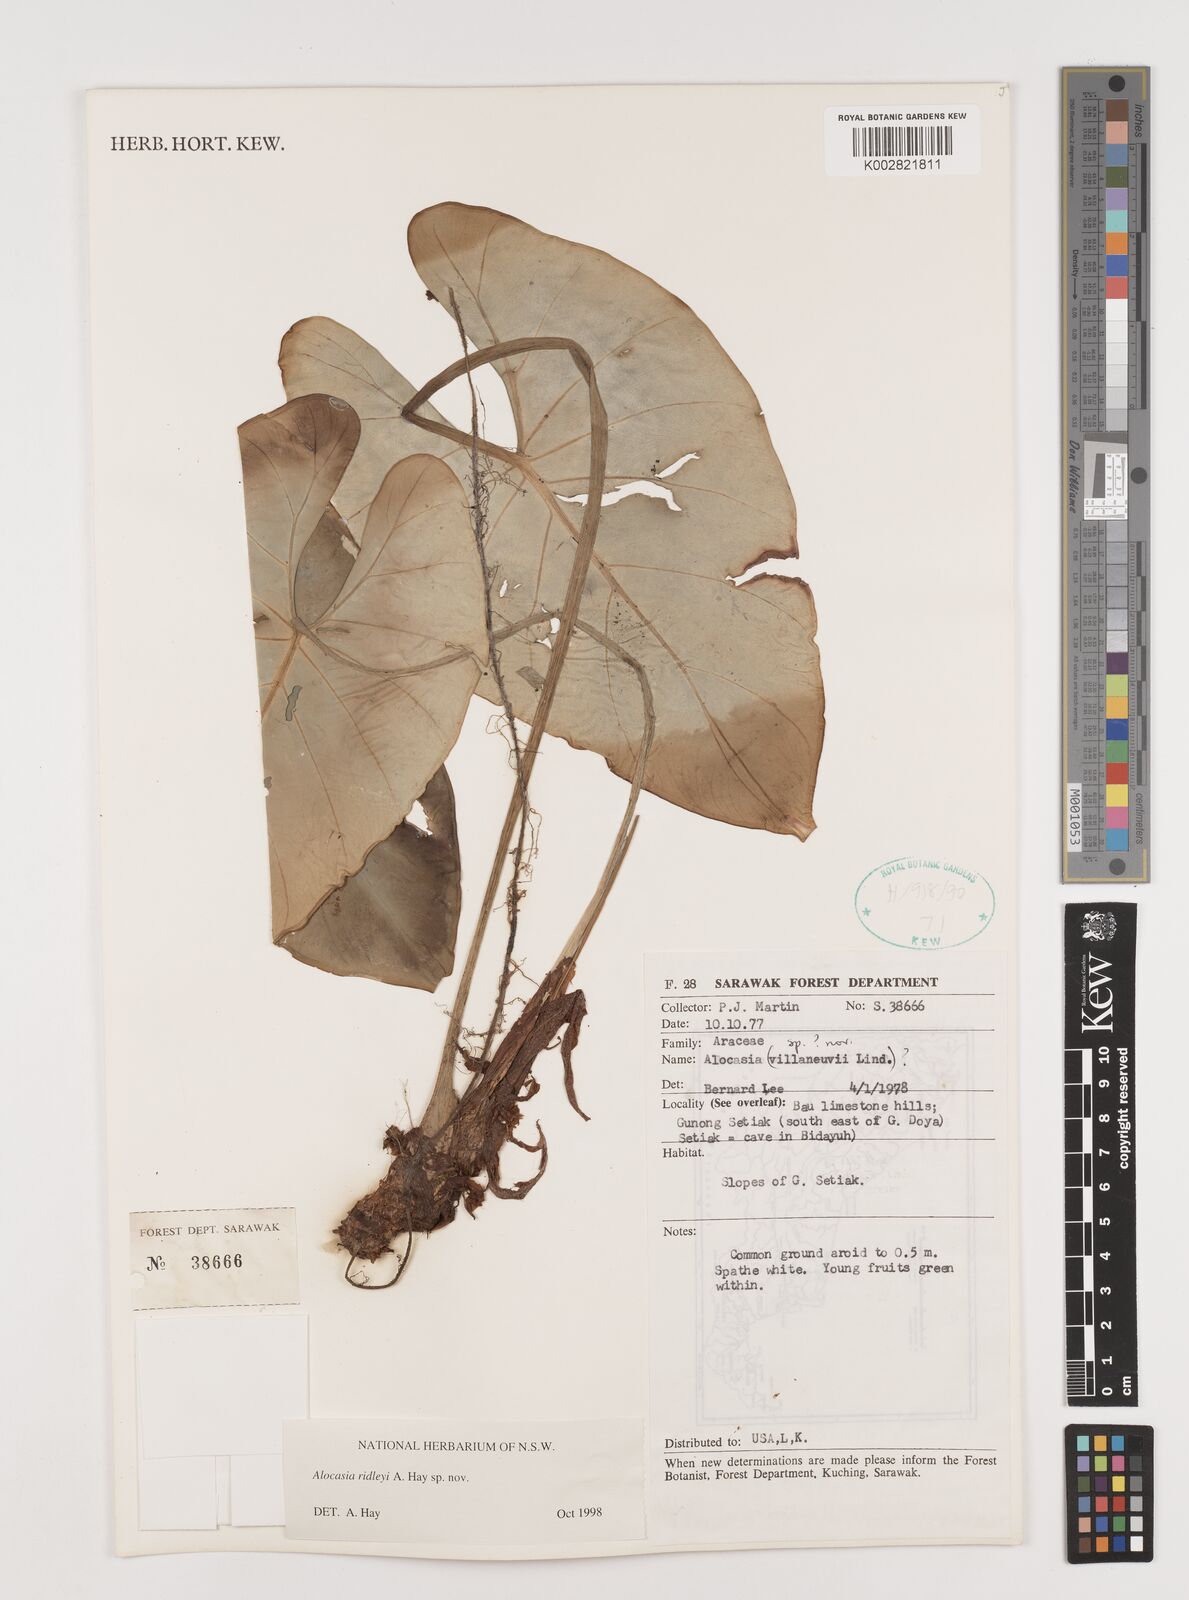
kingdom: Plantae
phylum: Tracheophyta
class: Liliopsida
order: Alismatales
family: Araceae
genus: Alocasia
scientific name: Alocasia ridleyi
